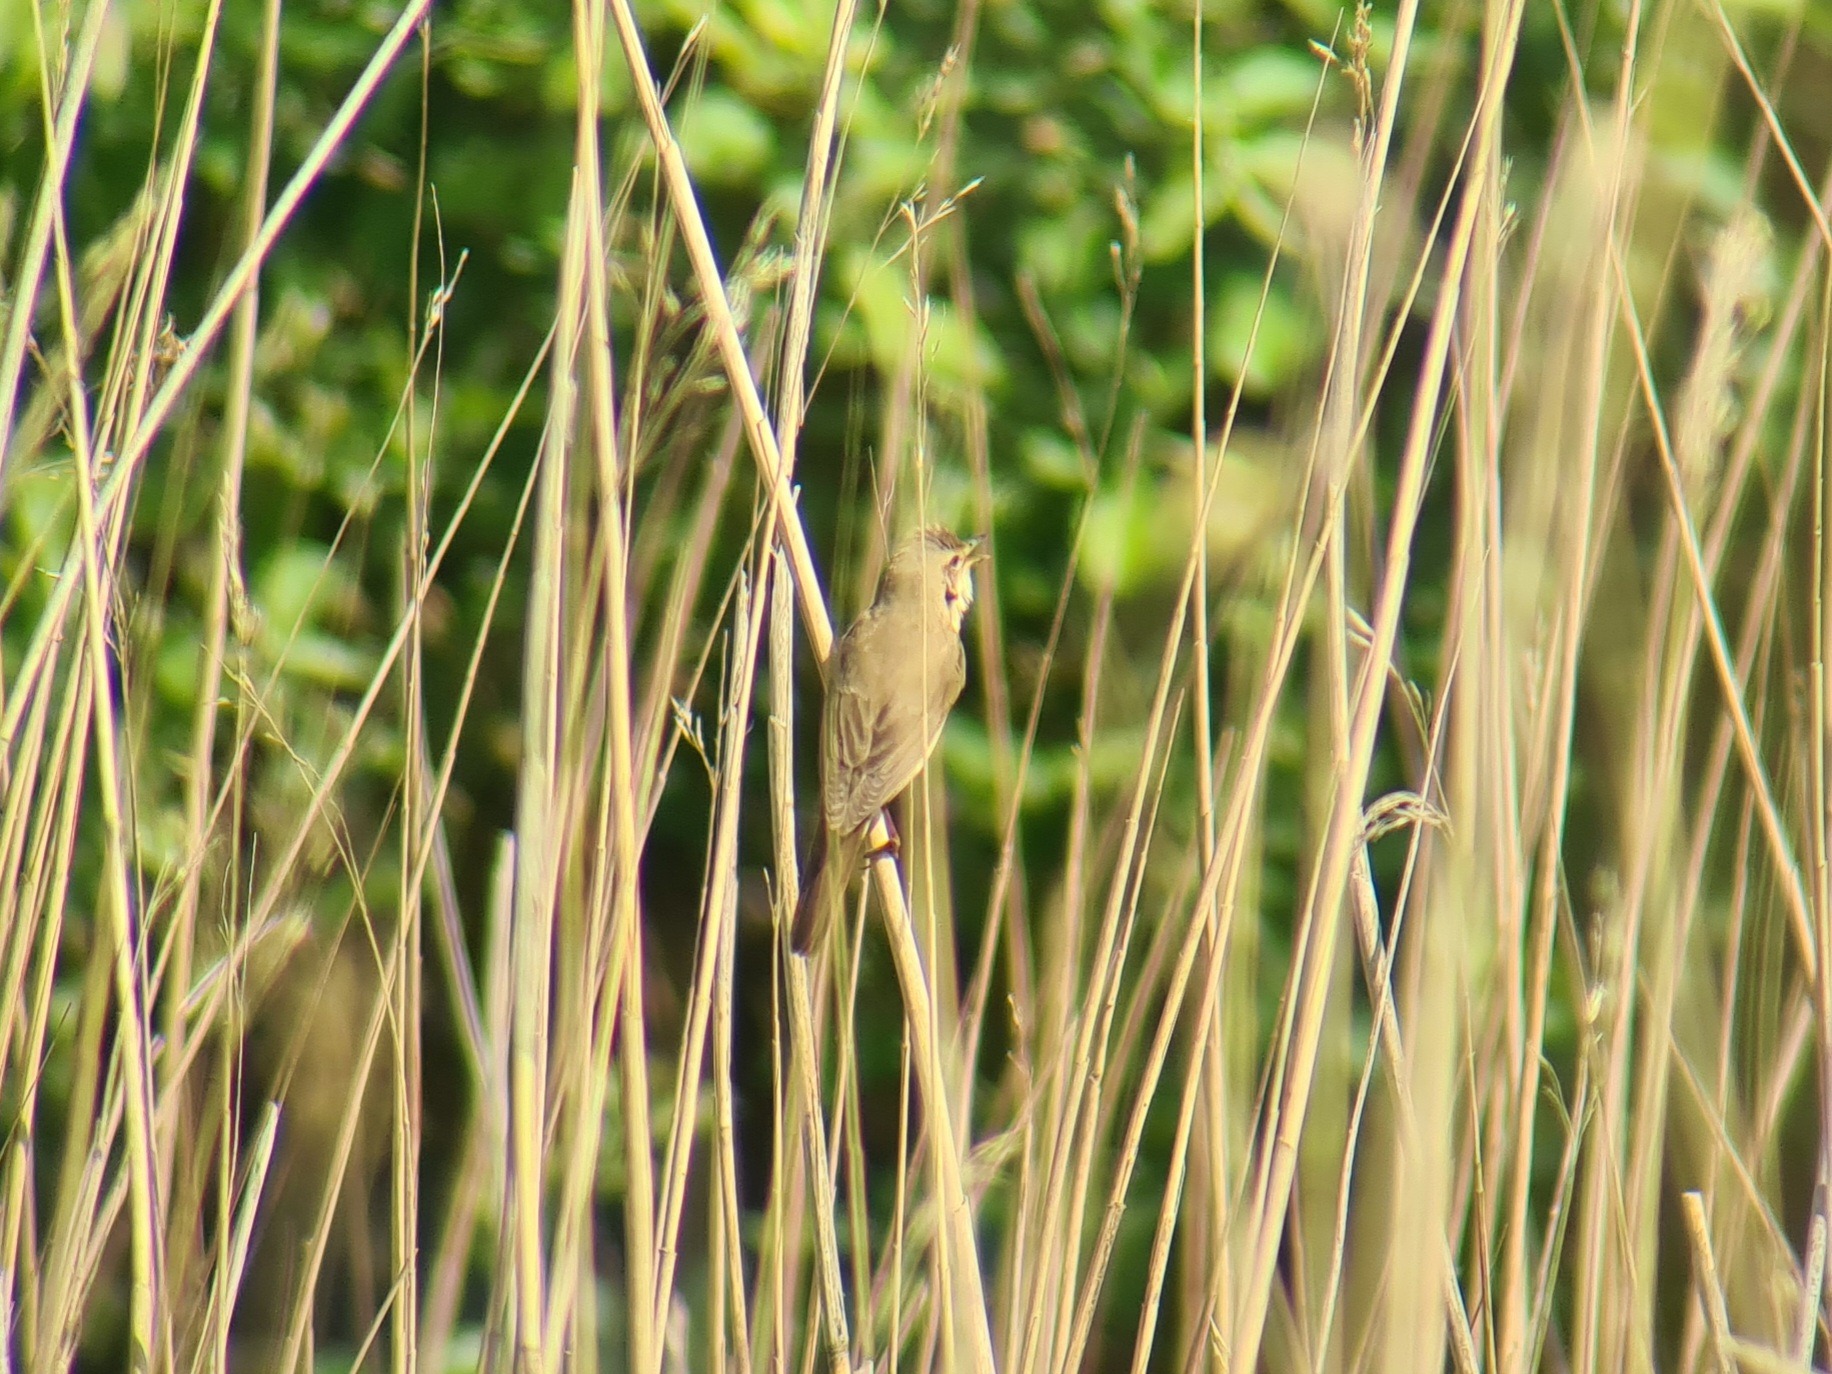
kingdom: Animalia
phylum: Chordata
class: Aves
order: Passeriformes
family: Acrocephalidae
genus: Acrocephalus
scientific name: Acrocephalus palustris
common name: Kærsanger
